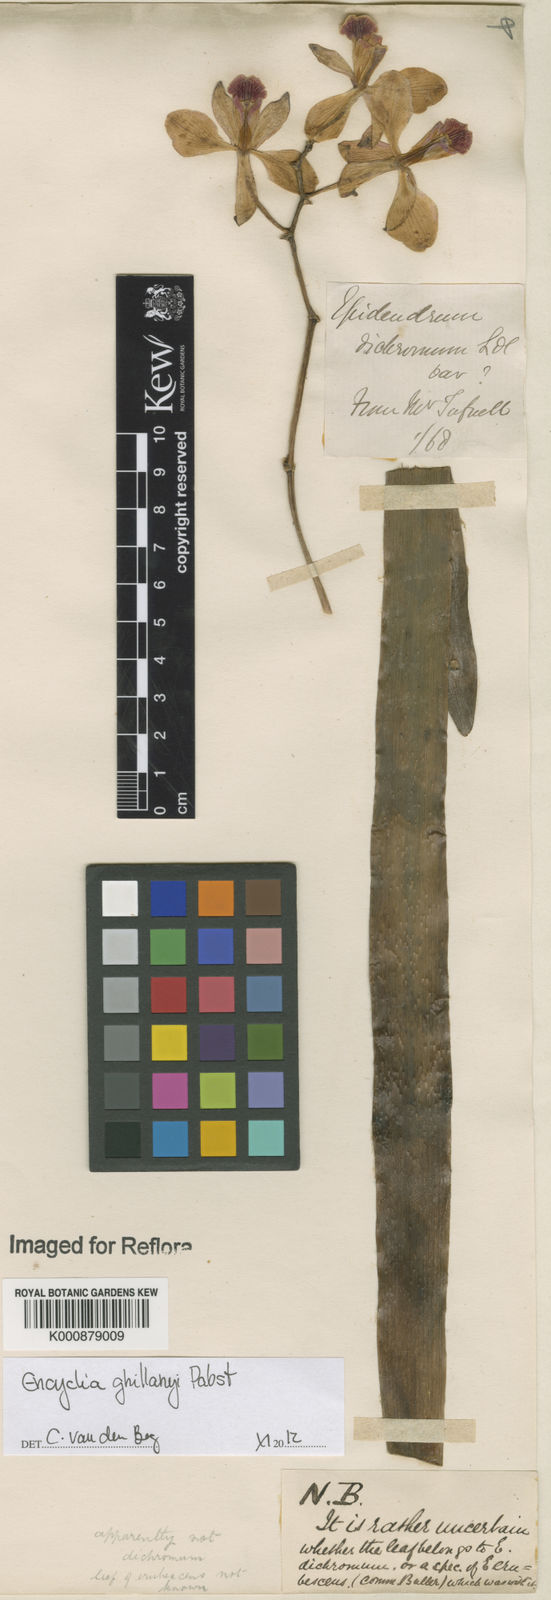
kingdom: Plantae
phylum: Tracheophyta
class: Liliopsida
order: Asparagales
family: Orchidaceae
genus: Encyclia
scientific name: Encyclia jenischiana
